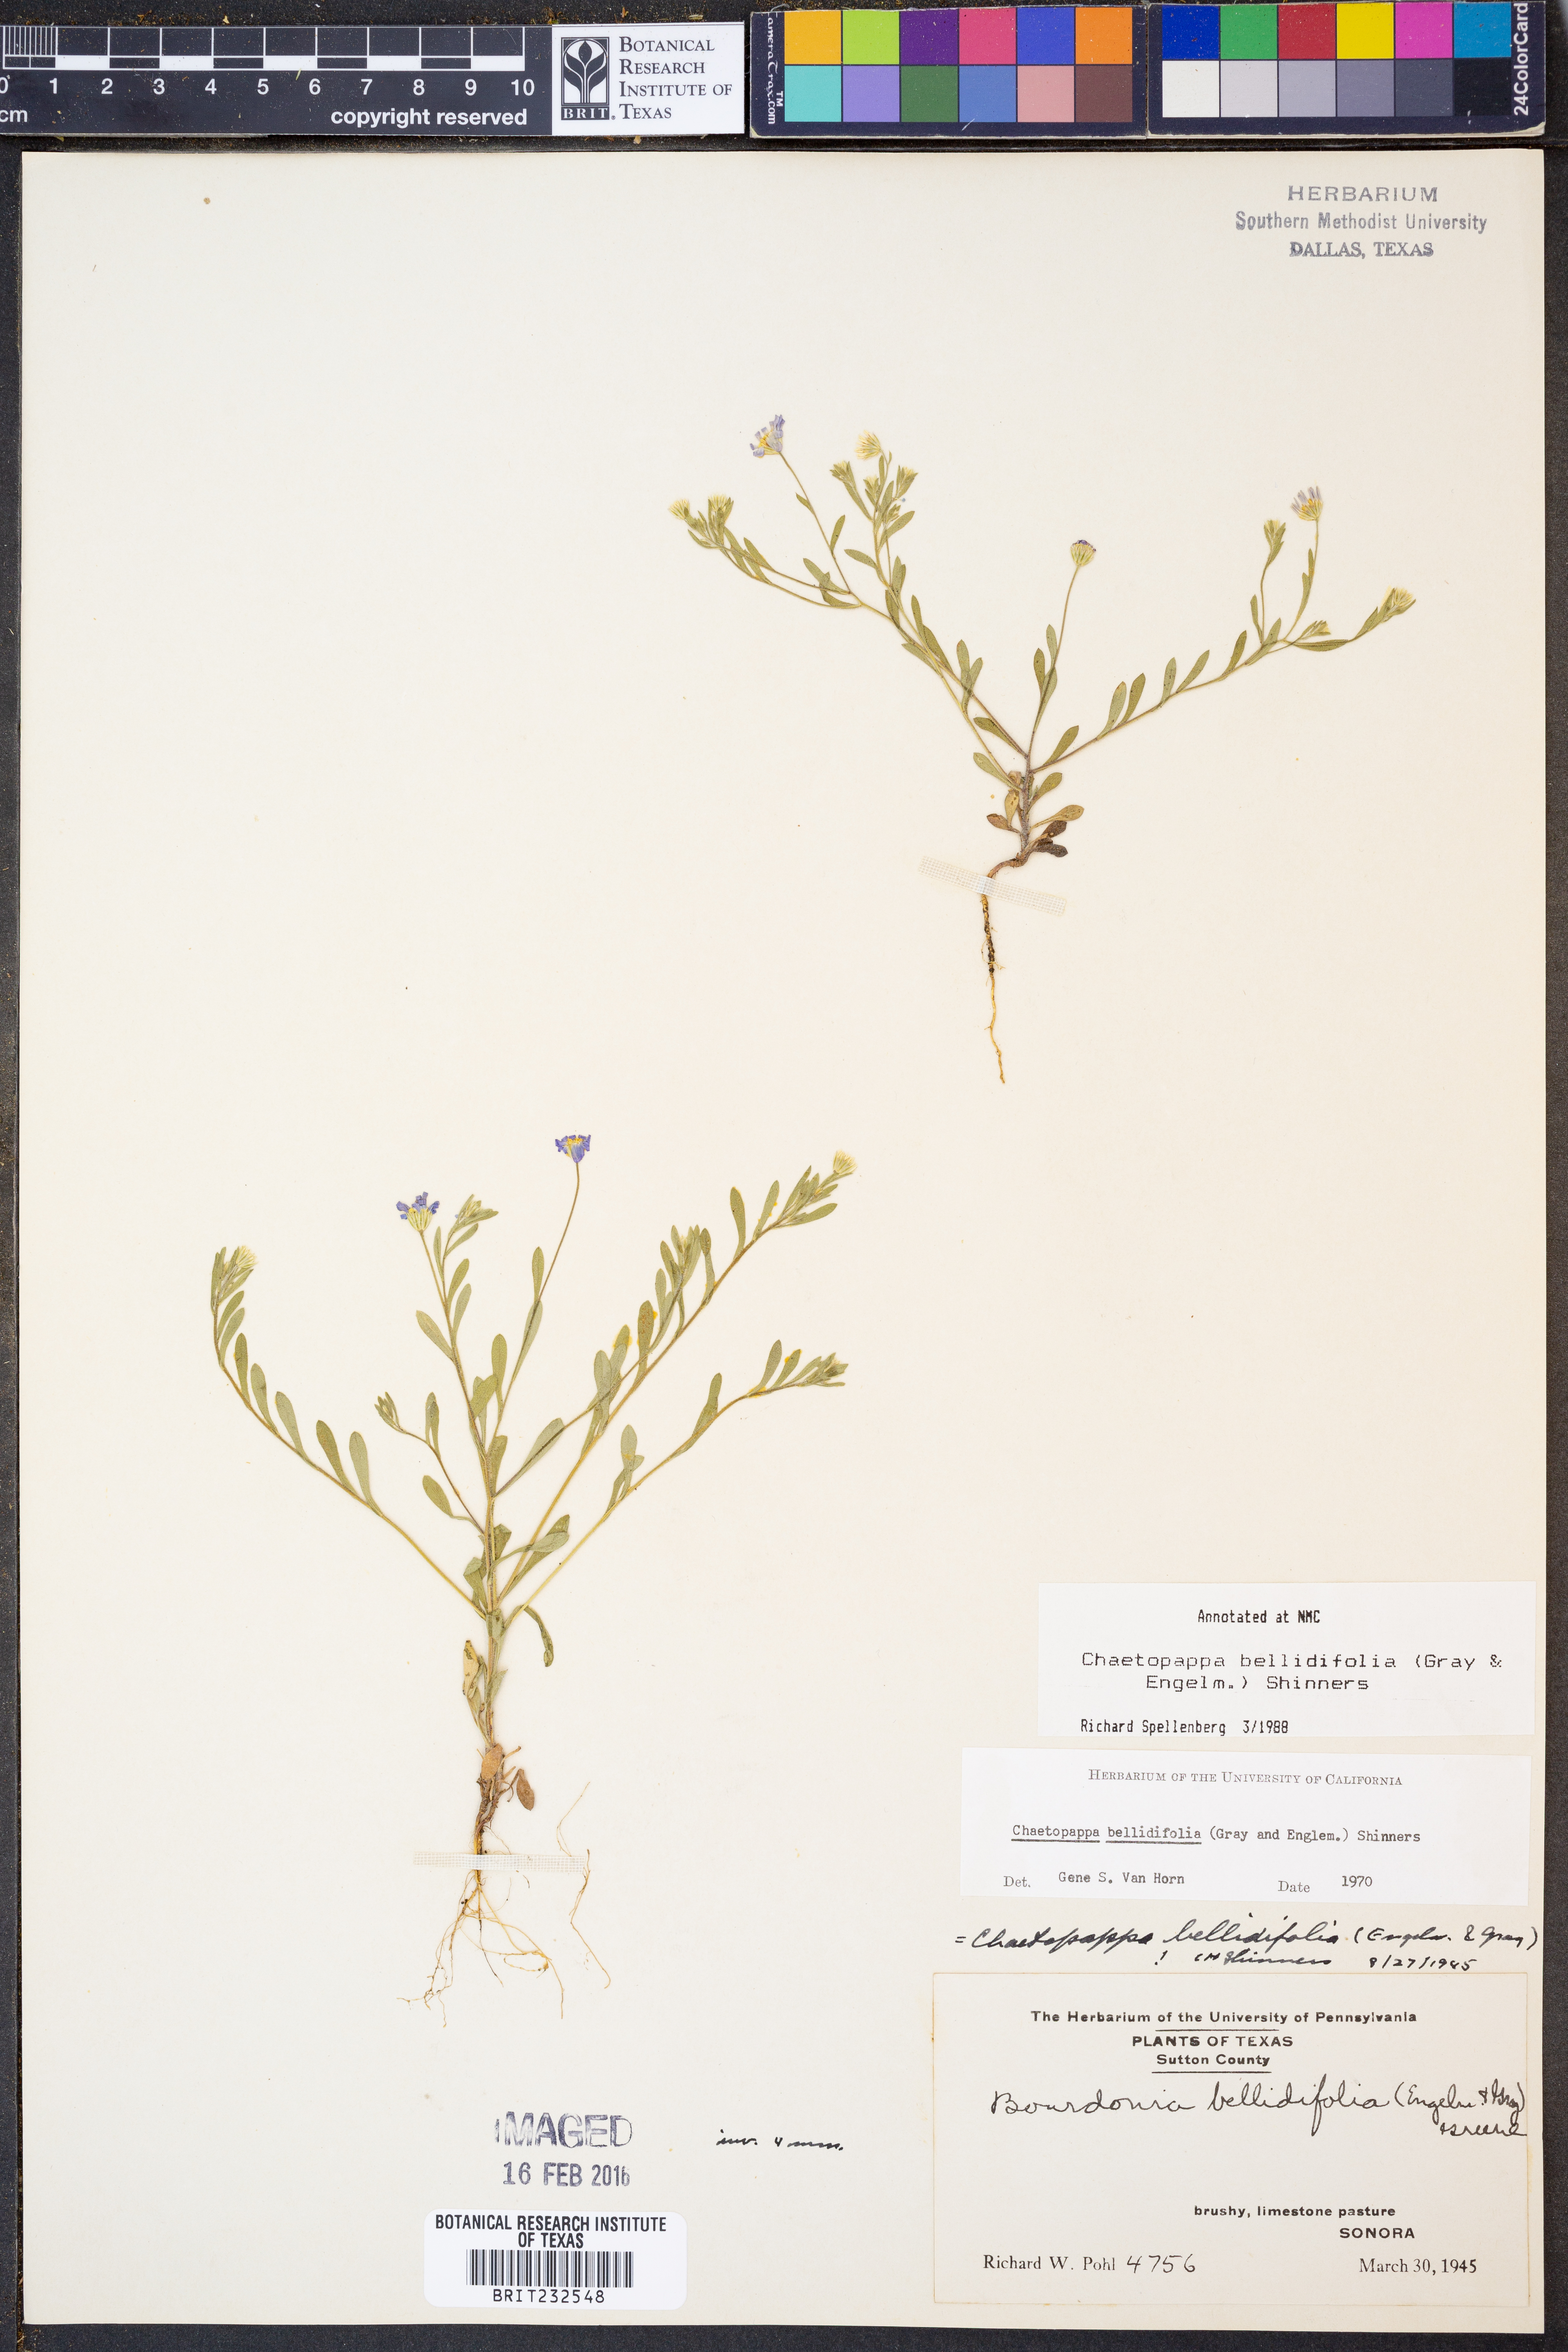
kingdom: Plantae
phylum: Tracheophyta
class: Magnoliopsida
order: Asterales
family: Asteraceae
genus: Chaetopappa
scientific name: Chaetopappa bellidifolia
